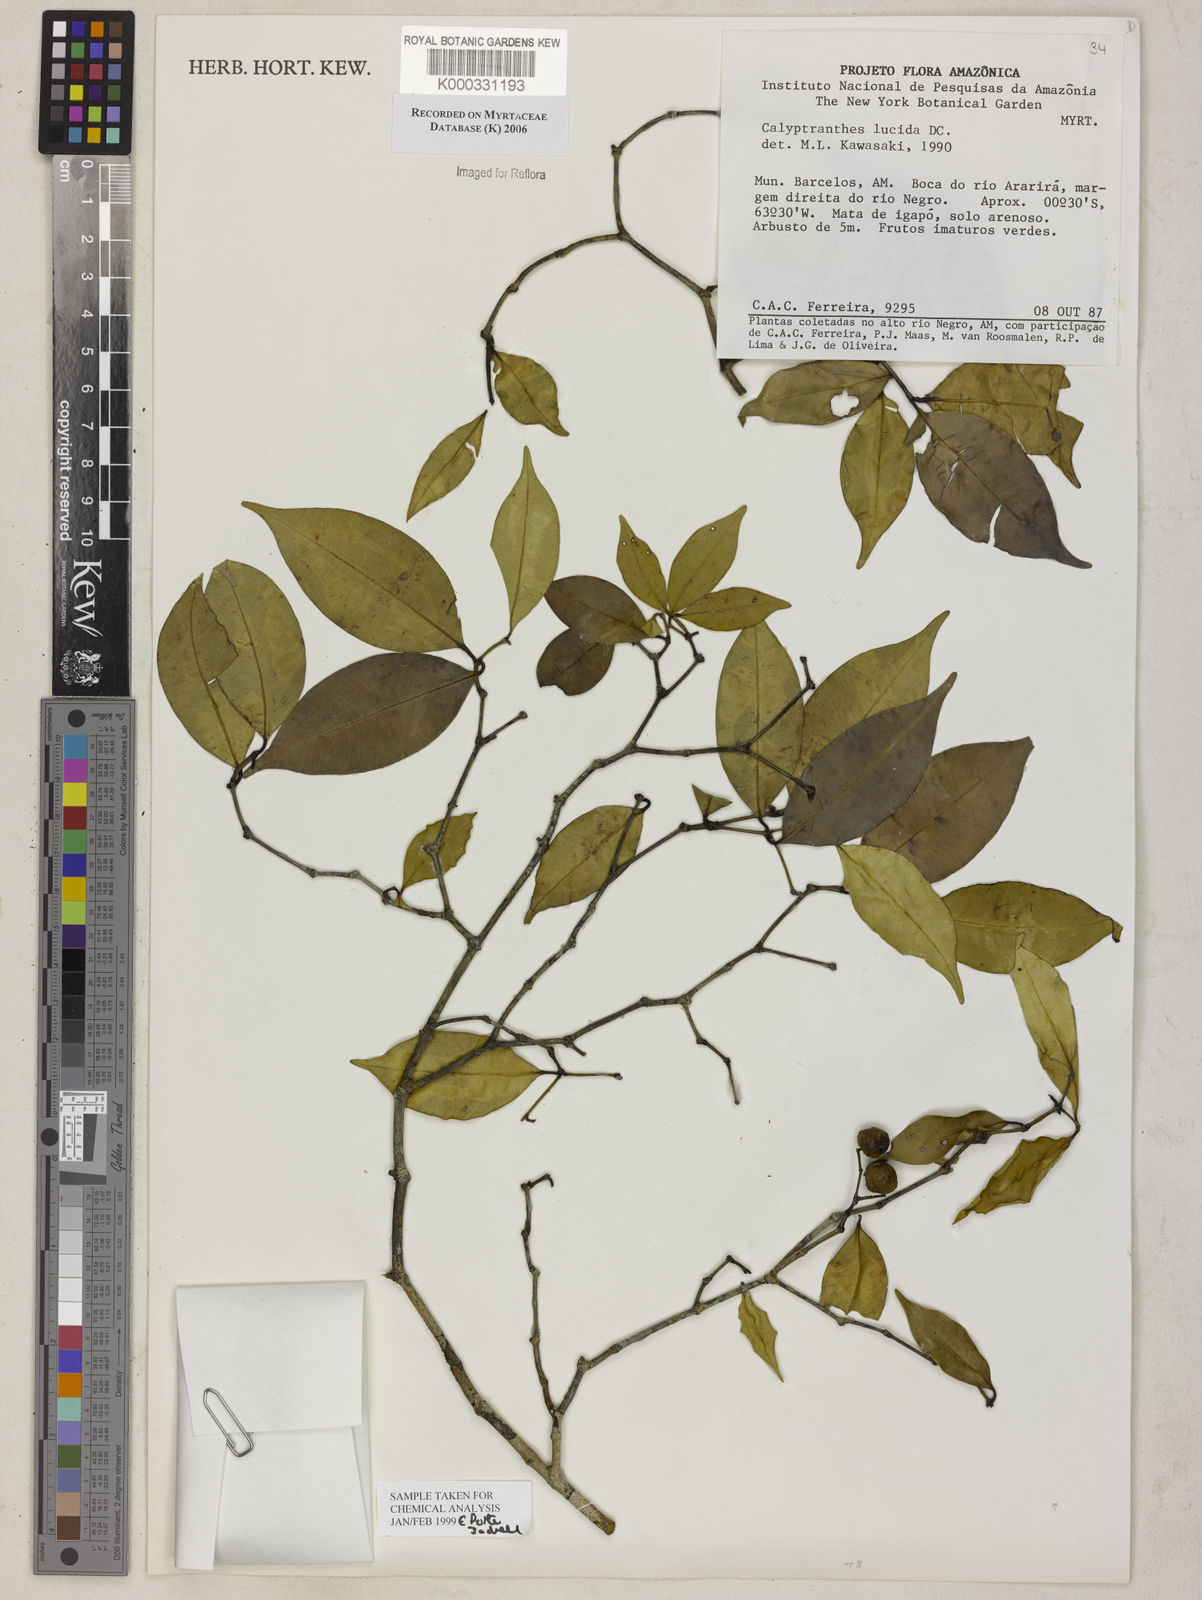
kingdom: Plantae
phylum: Tracheophyta
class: Magnoliopsida
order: Myrtales
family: Myrtaceae
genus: Myrcia
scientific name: Myrcia neolucida
